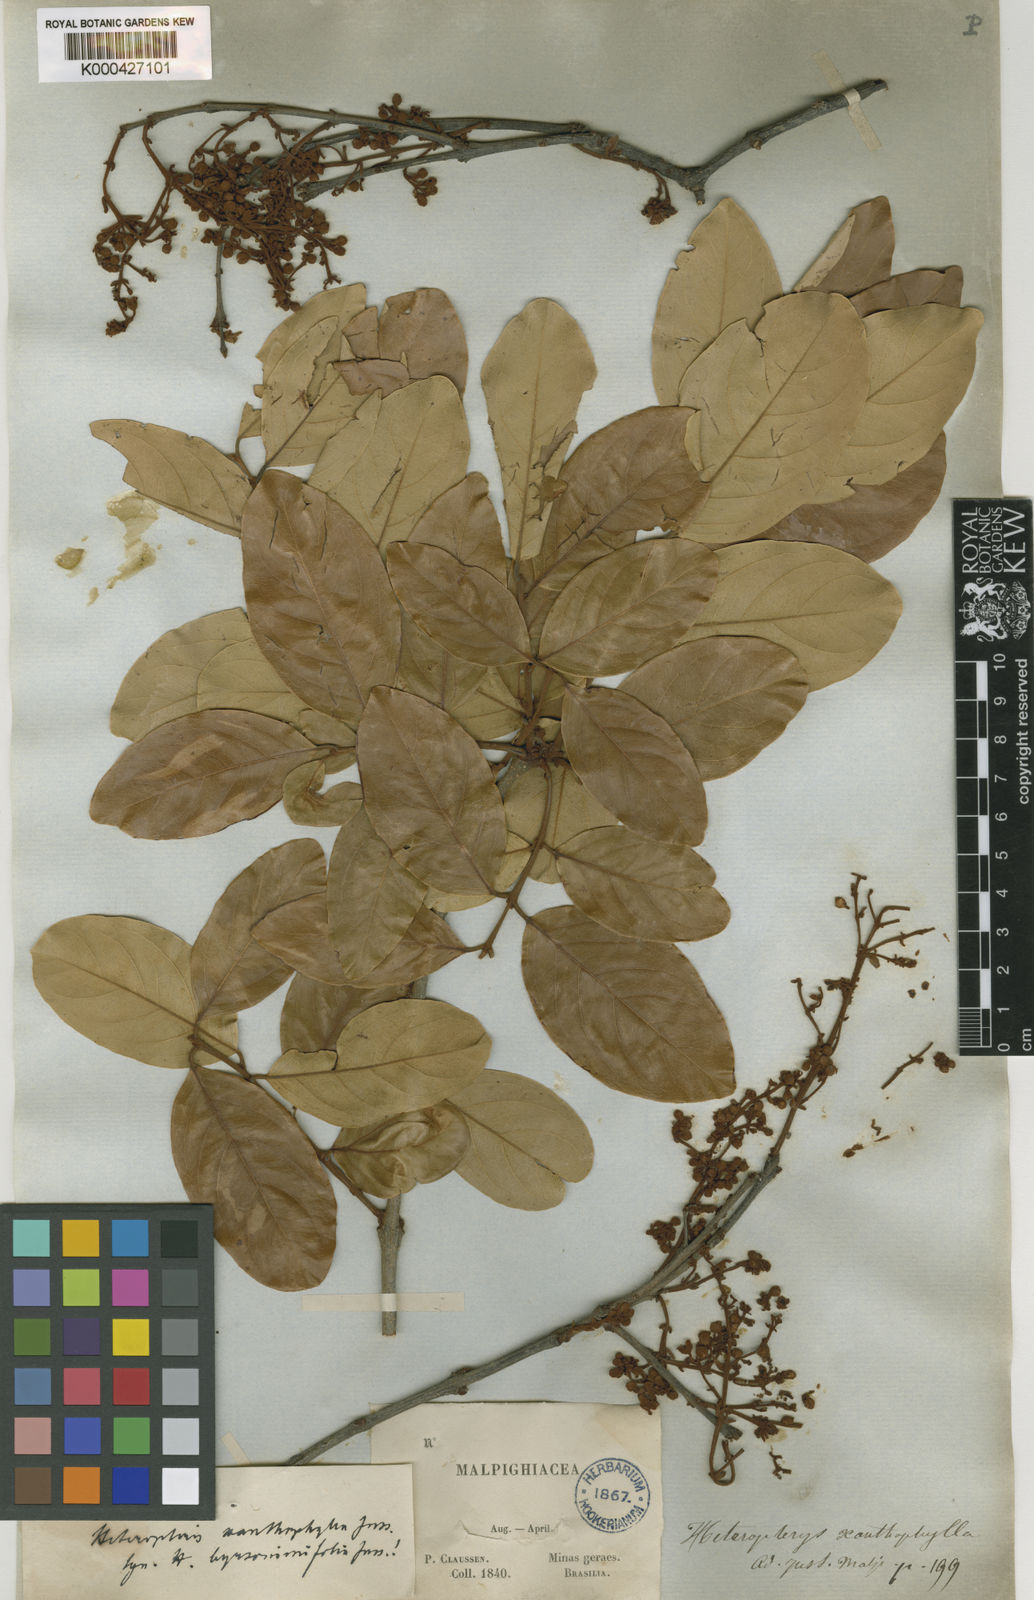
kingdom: Plantae
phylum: Tracheophyta
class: Magnoliopsida
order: Malpighiales
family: Malpighiaceae
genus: Heteropterys
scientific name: Heteropterys xanthophylla
